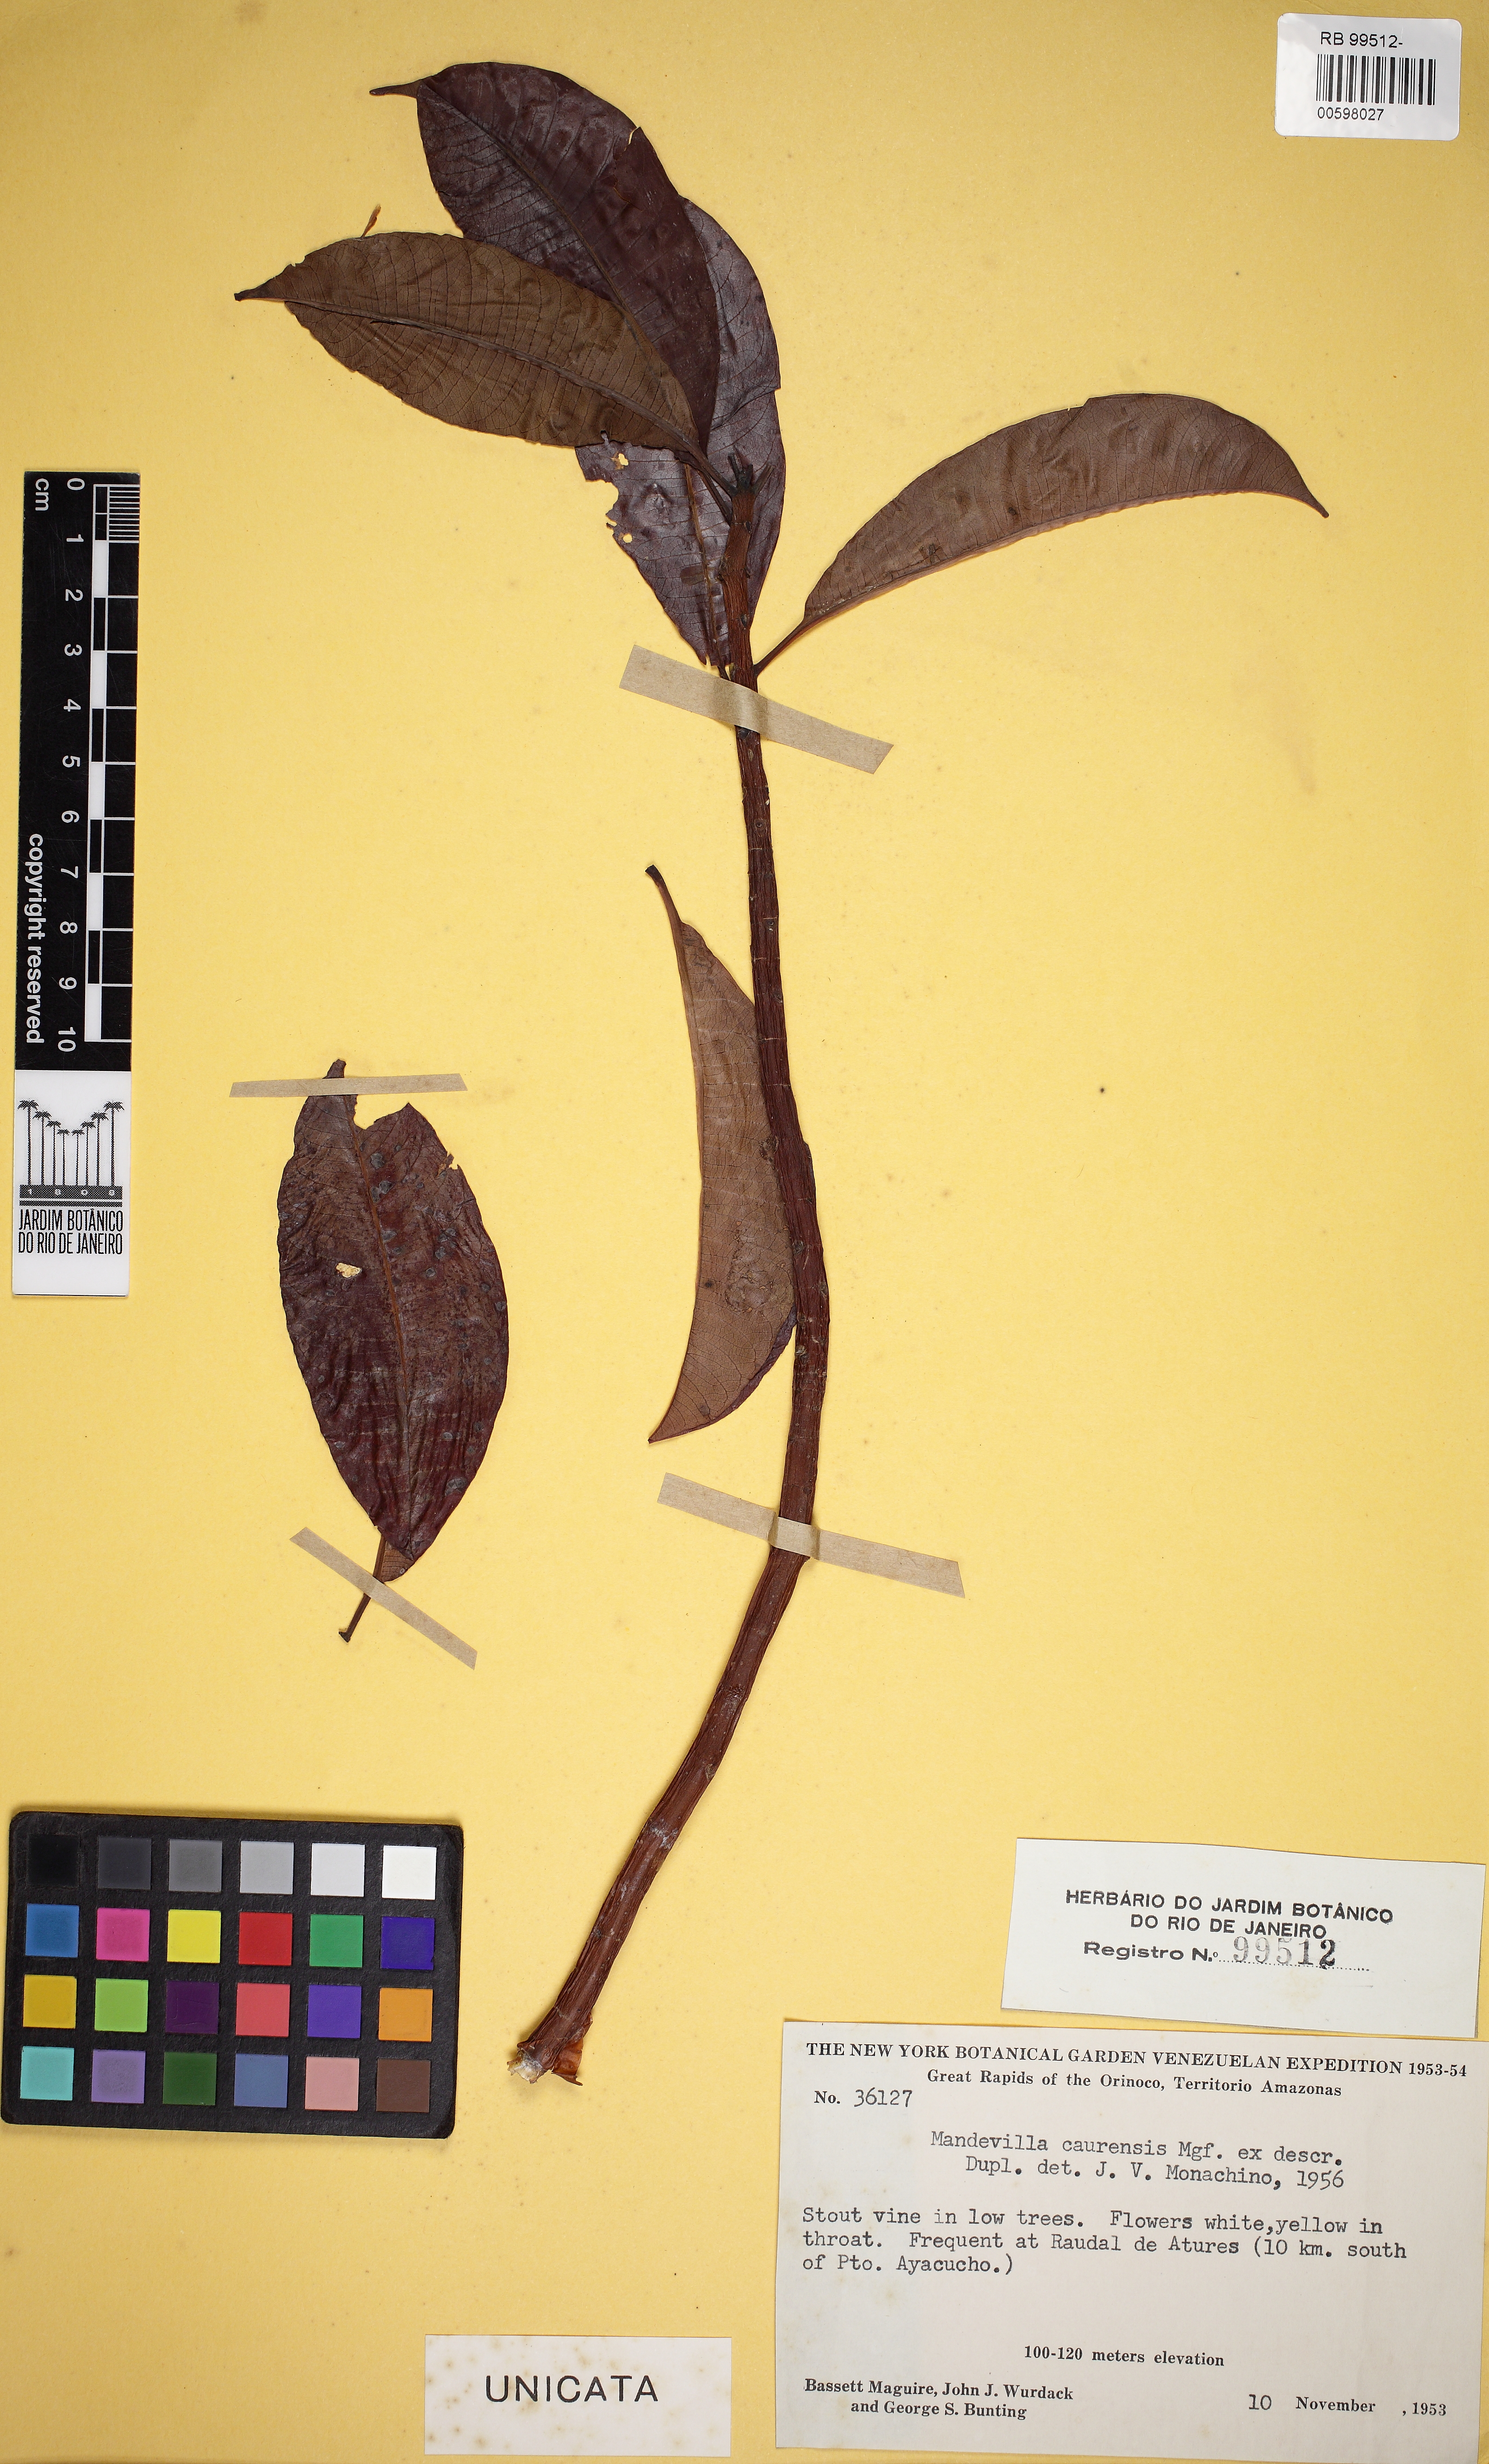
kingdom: Plantae
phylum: Tracheophyta
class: Magnoliopsida
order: Gentianales
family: Apocynaceae
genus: Mandevilla
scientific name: Mandevilla caurensis
